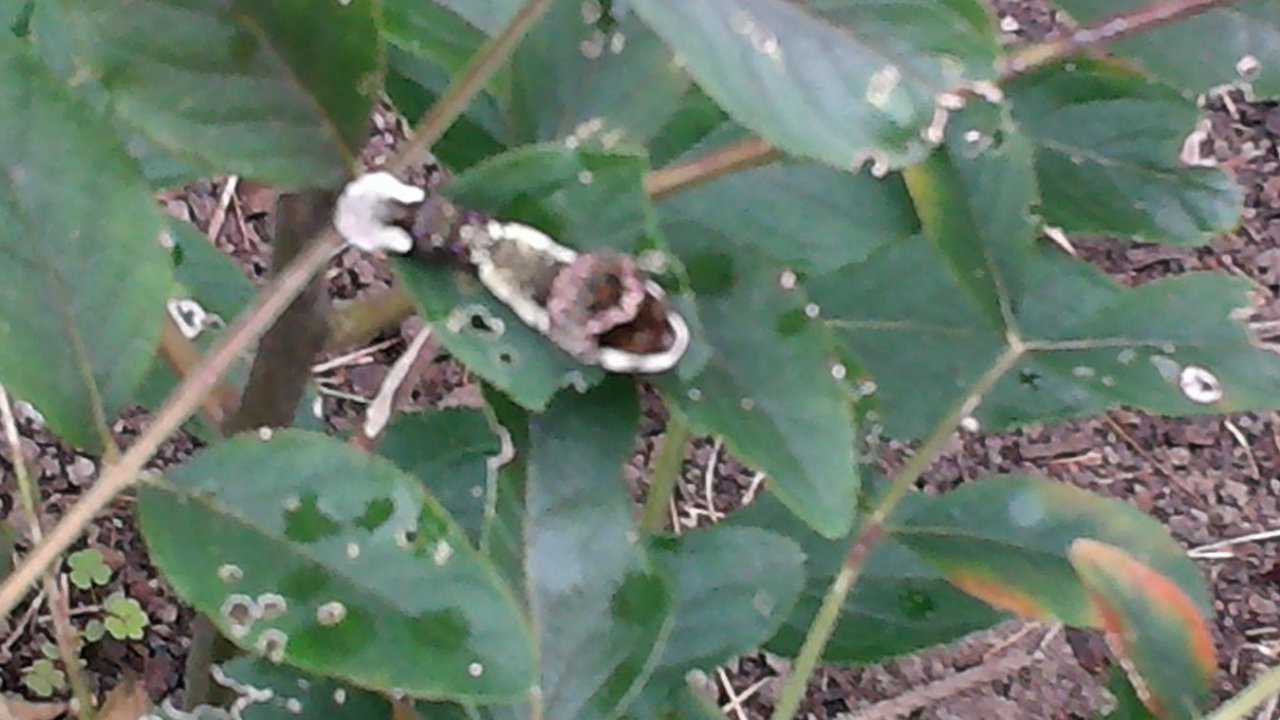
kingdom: Animalia
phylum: Arthropoda
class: Insecta
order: Lepidoptera
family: Papilionidae
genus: Papilio
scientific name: Papilio cresphontes
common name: Eastern Giant Swallowtail
